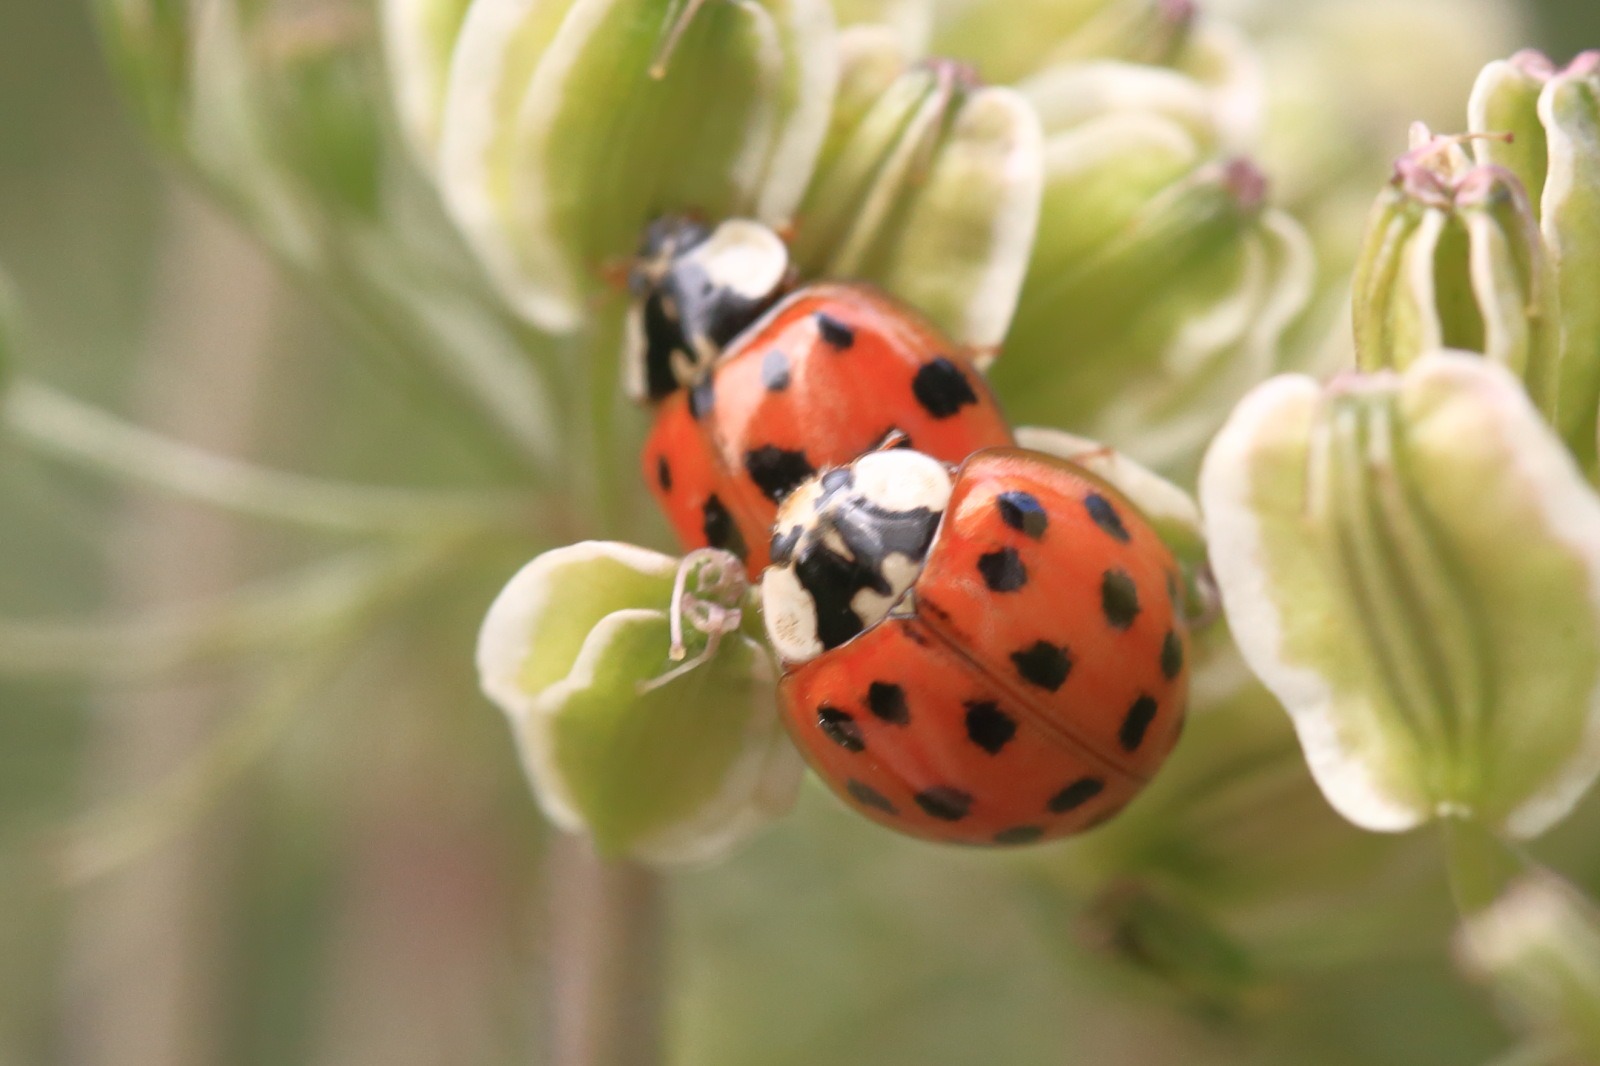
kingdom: Animalia
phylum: Arthropoda
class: Insecta
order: Coleoptera
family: Coccinellidae
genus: Harmonia
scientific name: Harmonia axyridis
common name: Harlekinmariehøne
